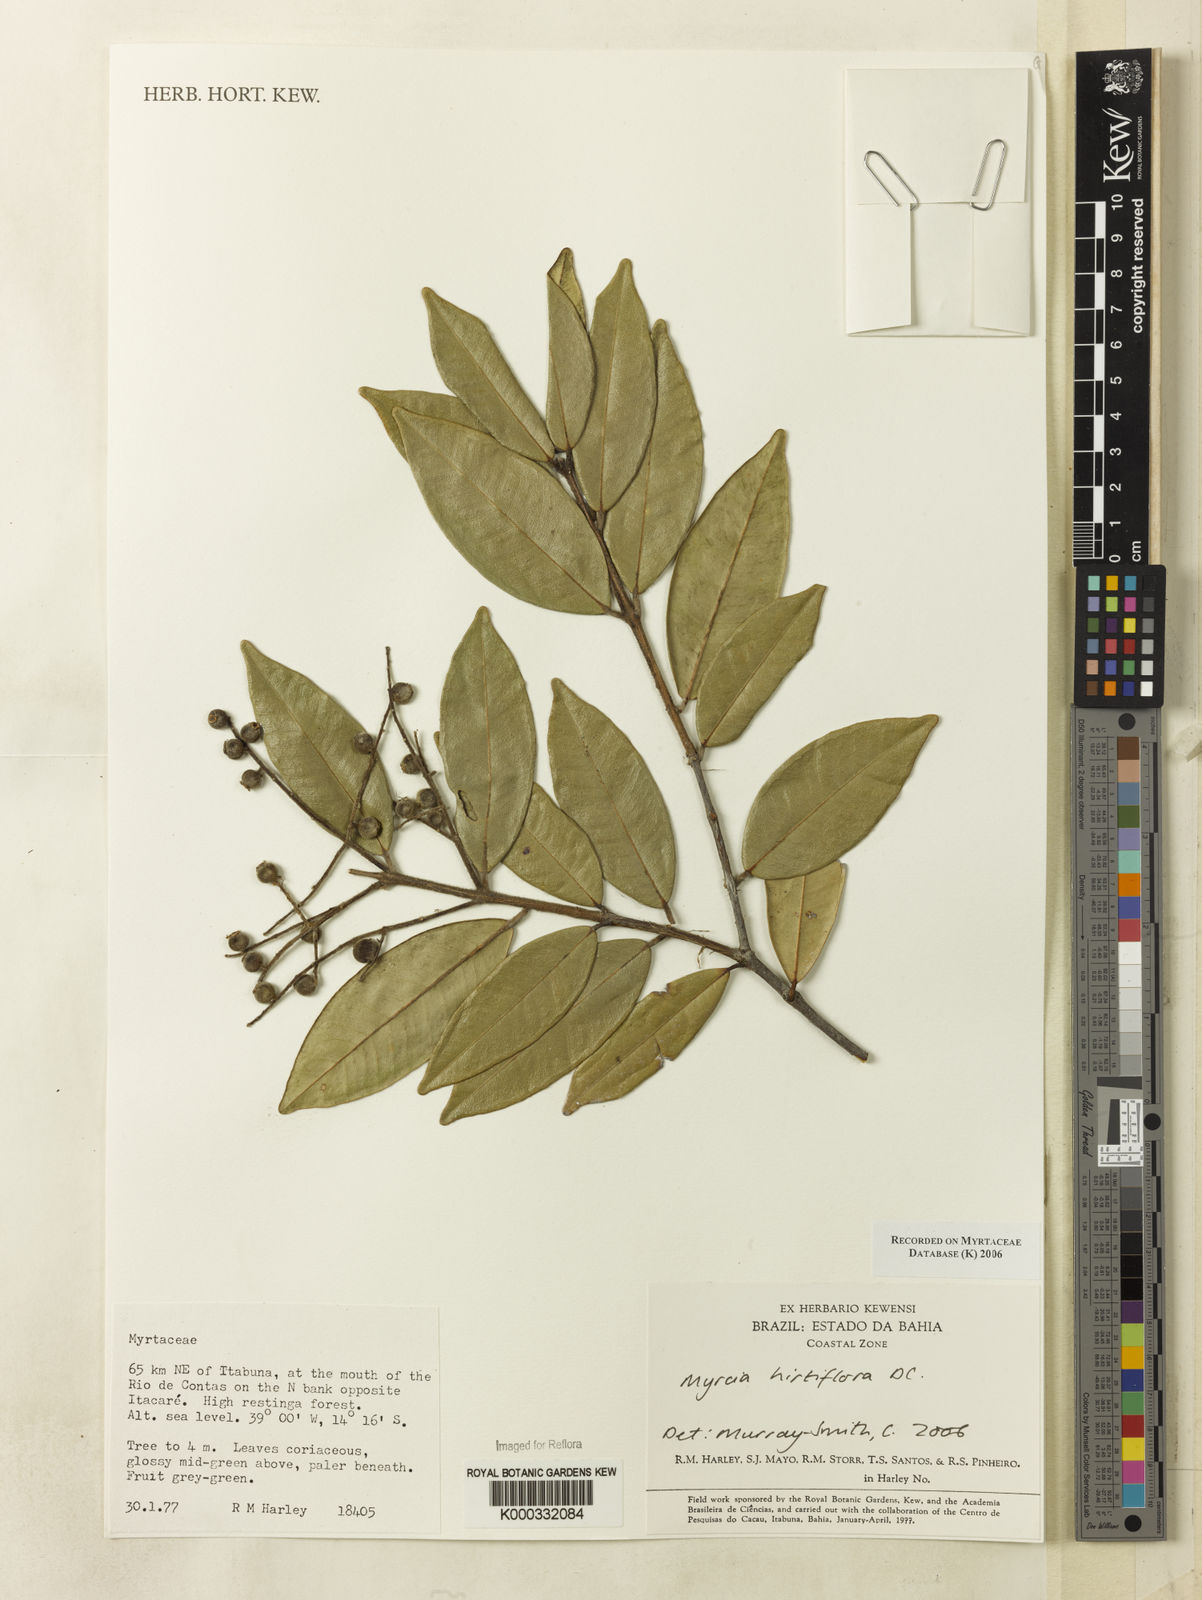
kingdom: Plantae
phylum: Tracheophyta
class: Magnoliopsida
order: Myrtales
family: Myrtaceae
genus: Myrcia
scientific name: Myrcia tomentosa
